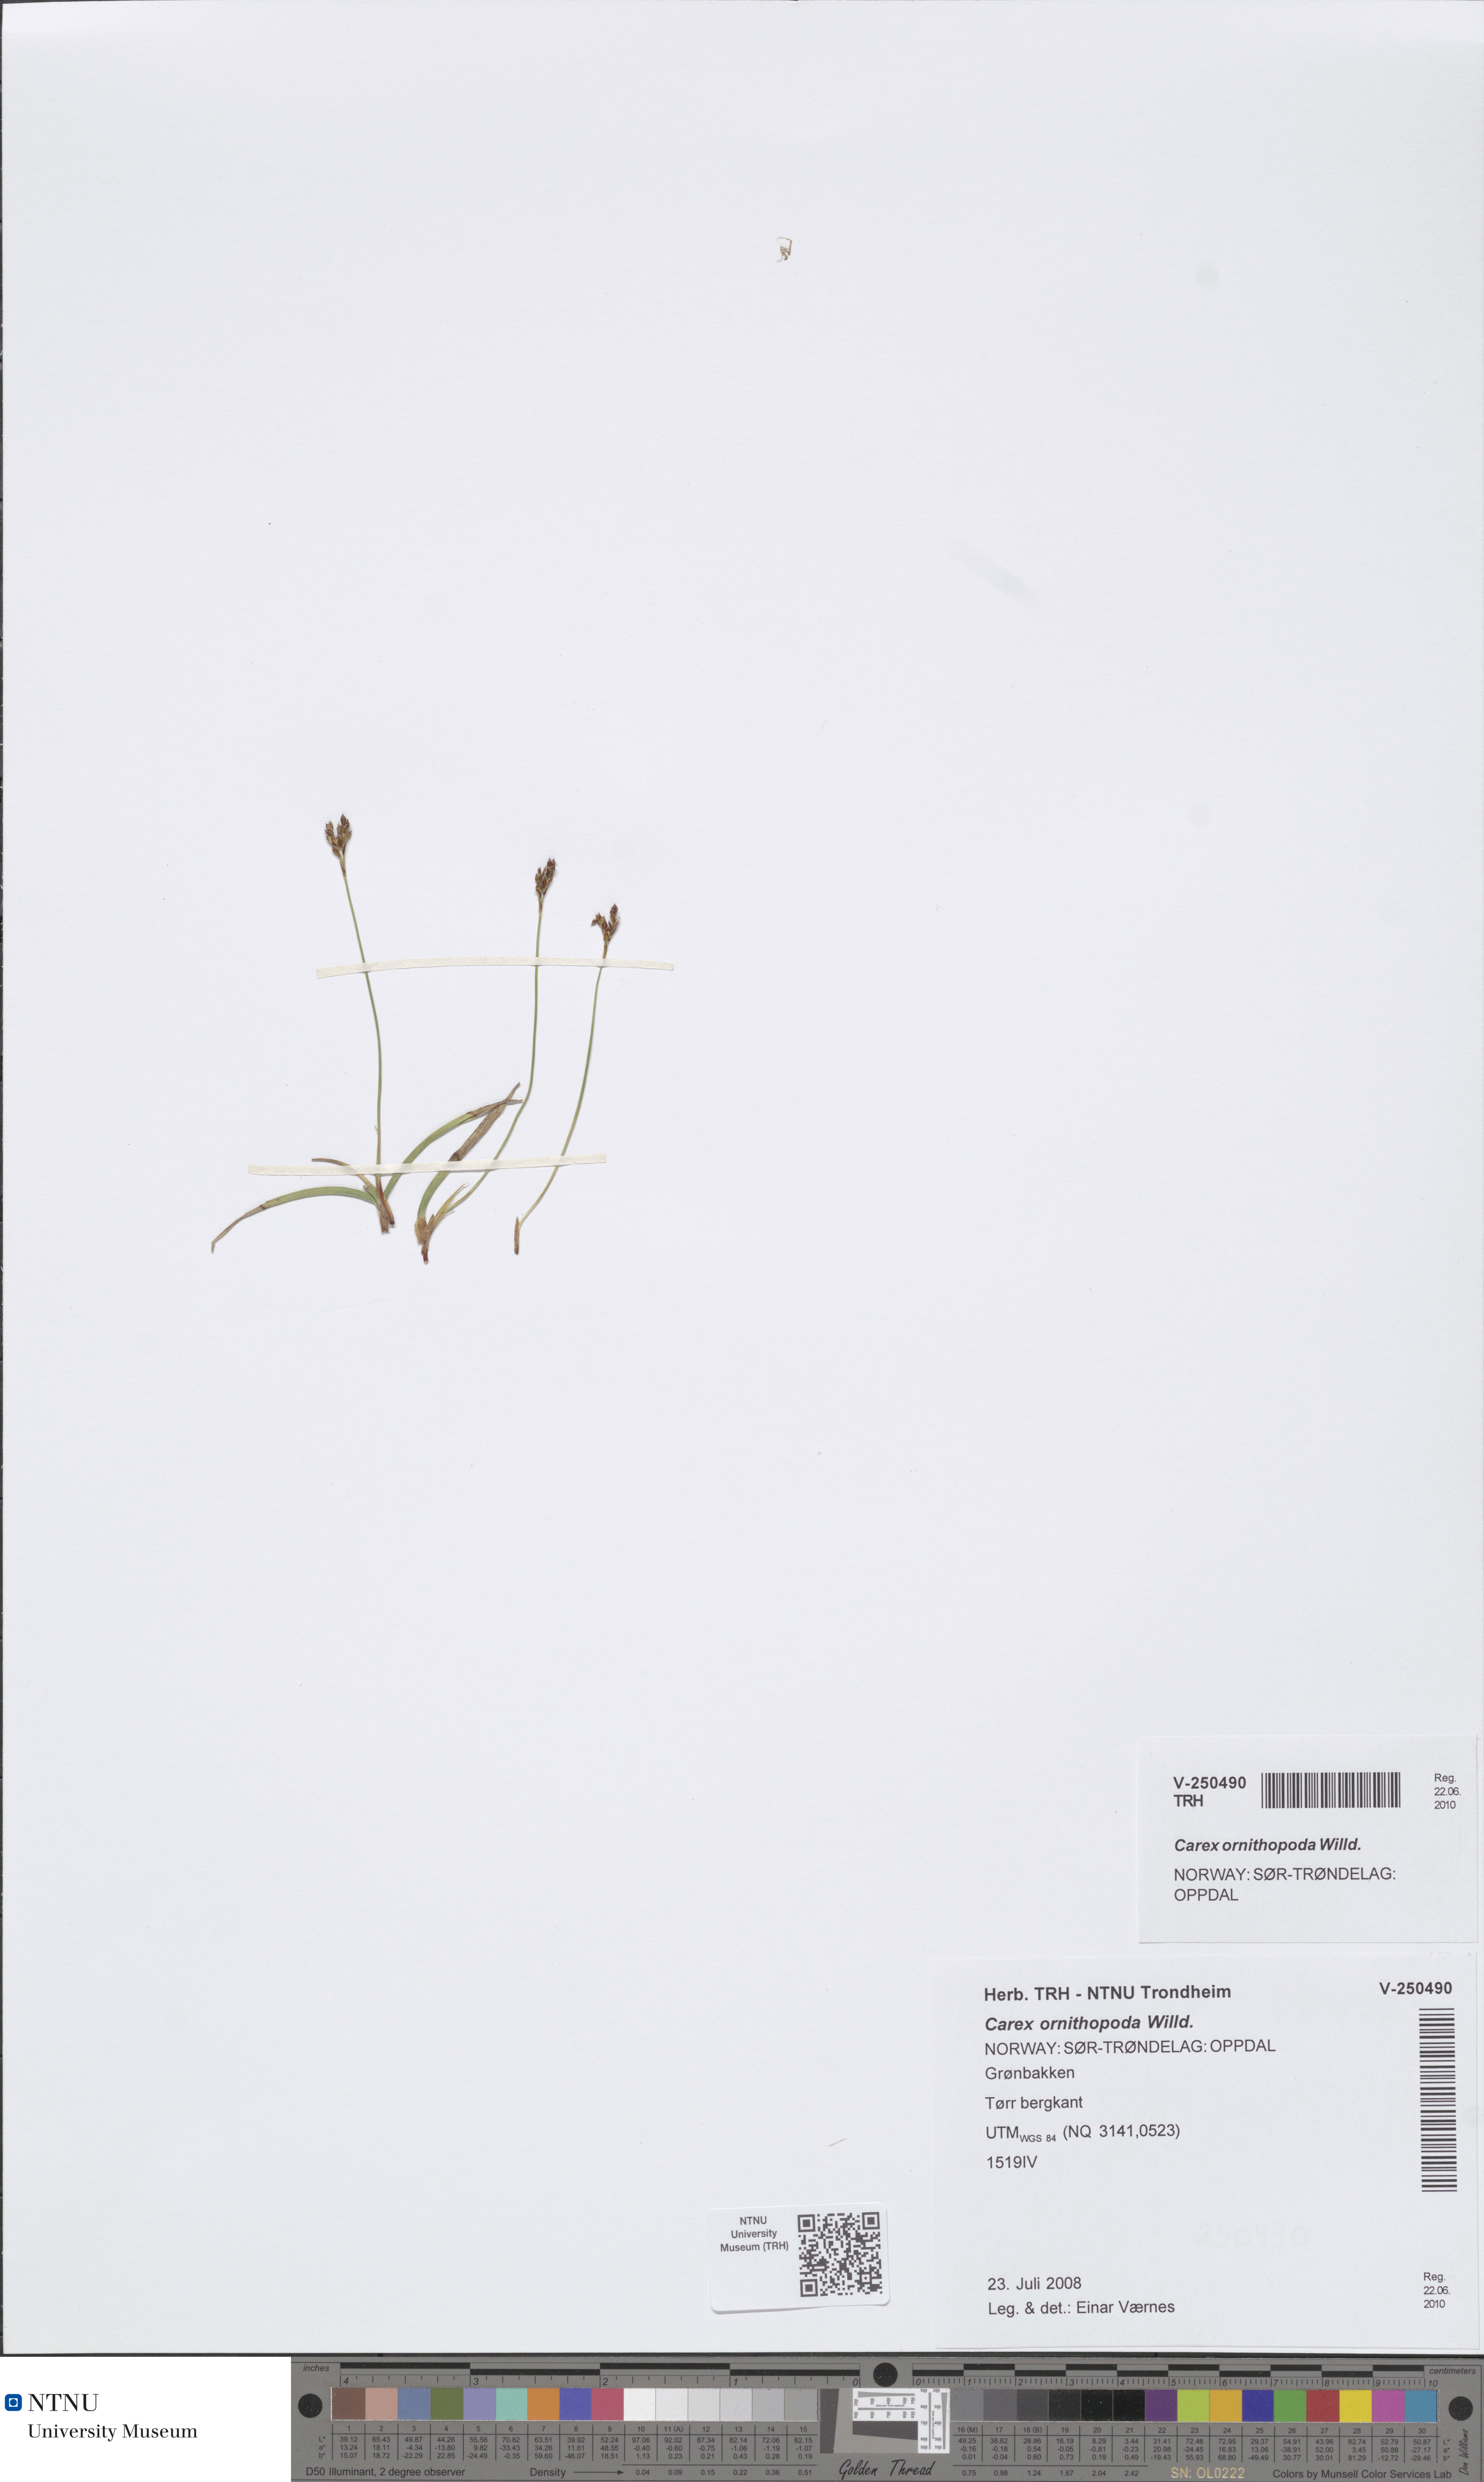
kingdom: Plantae
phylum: Tracheophyta
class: Liliopsida
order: Poales
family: Cyperaceae
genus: Carex
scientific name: Carex ornithopoda
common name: Bird's-foot sedge
